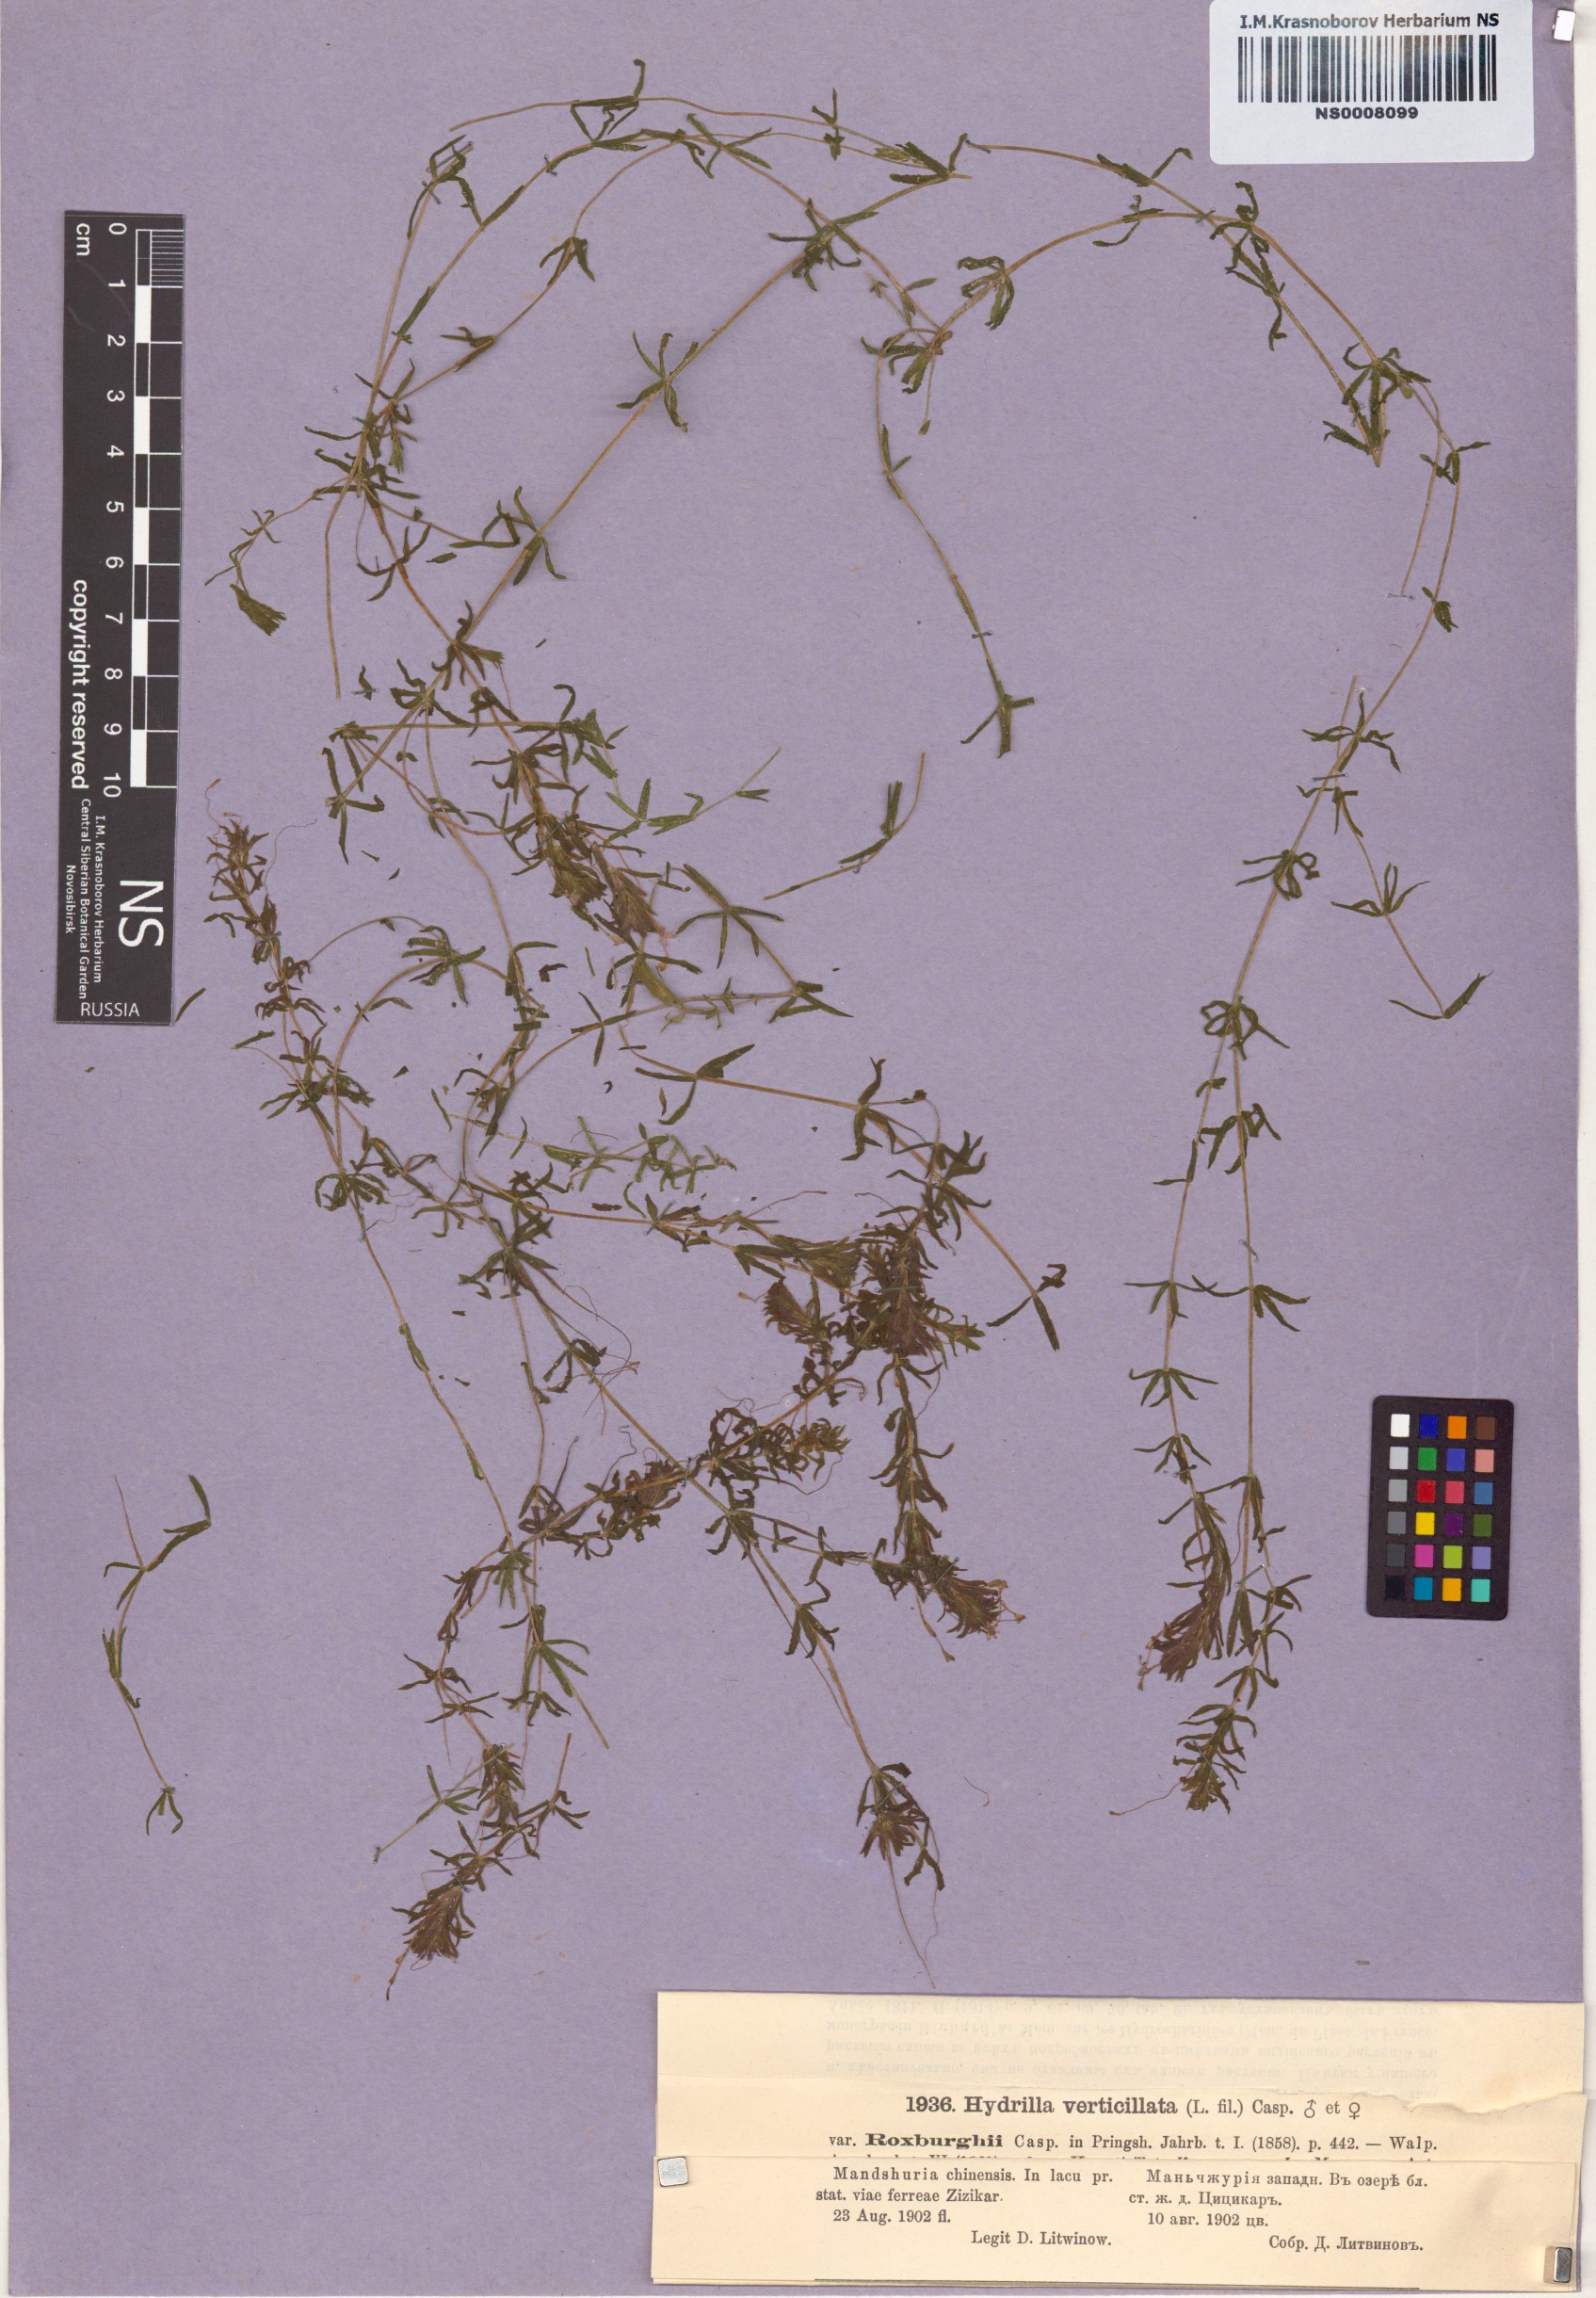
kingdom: Plantae
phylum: Tracheophyta
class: Liliopsida
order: Alismatales
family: Hydrocharitaceae
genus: Hydrilla
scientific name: Hydrilla verticillata
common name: Florida-elodea
